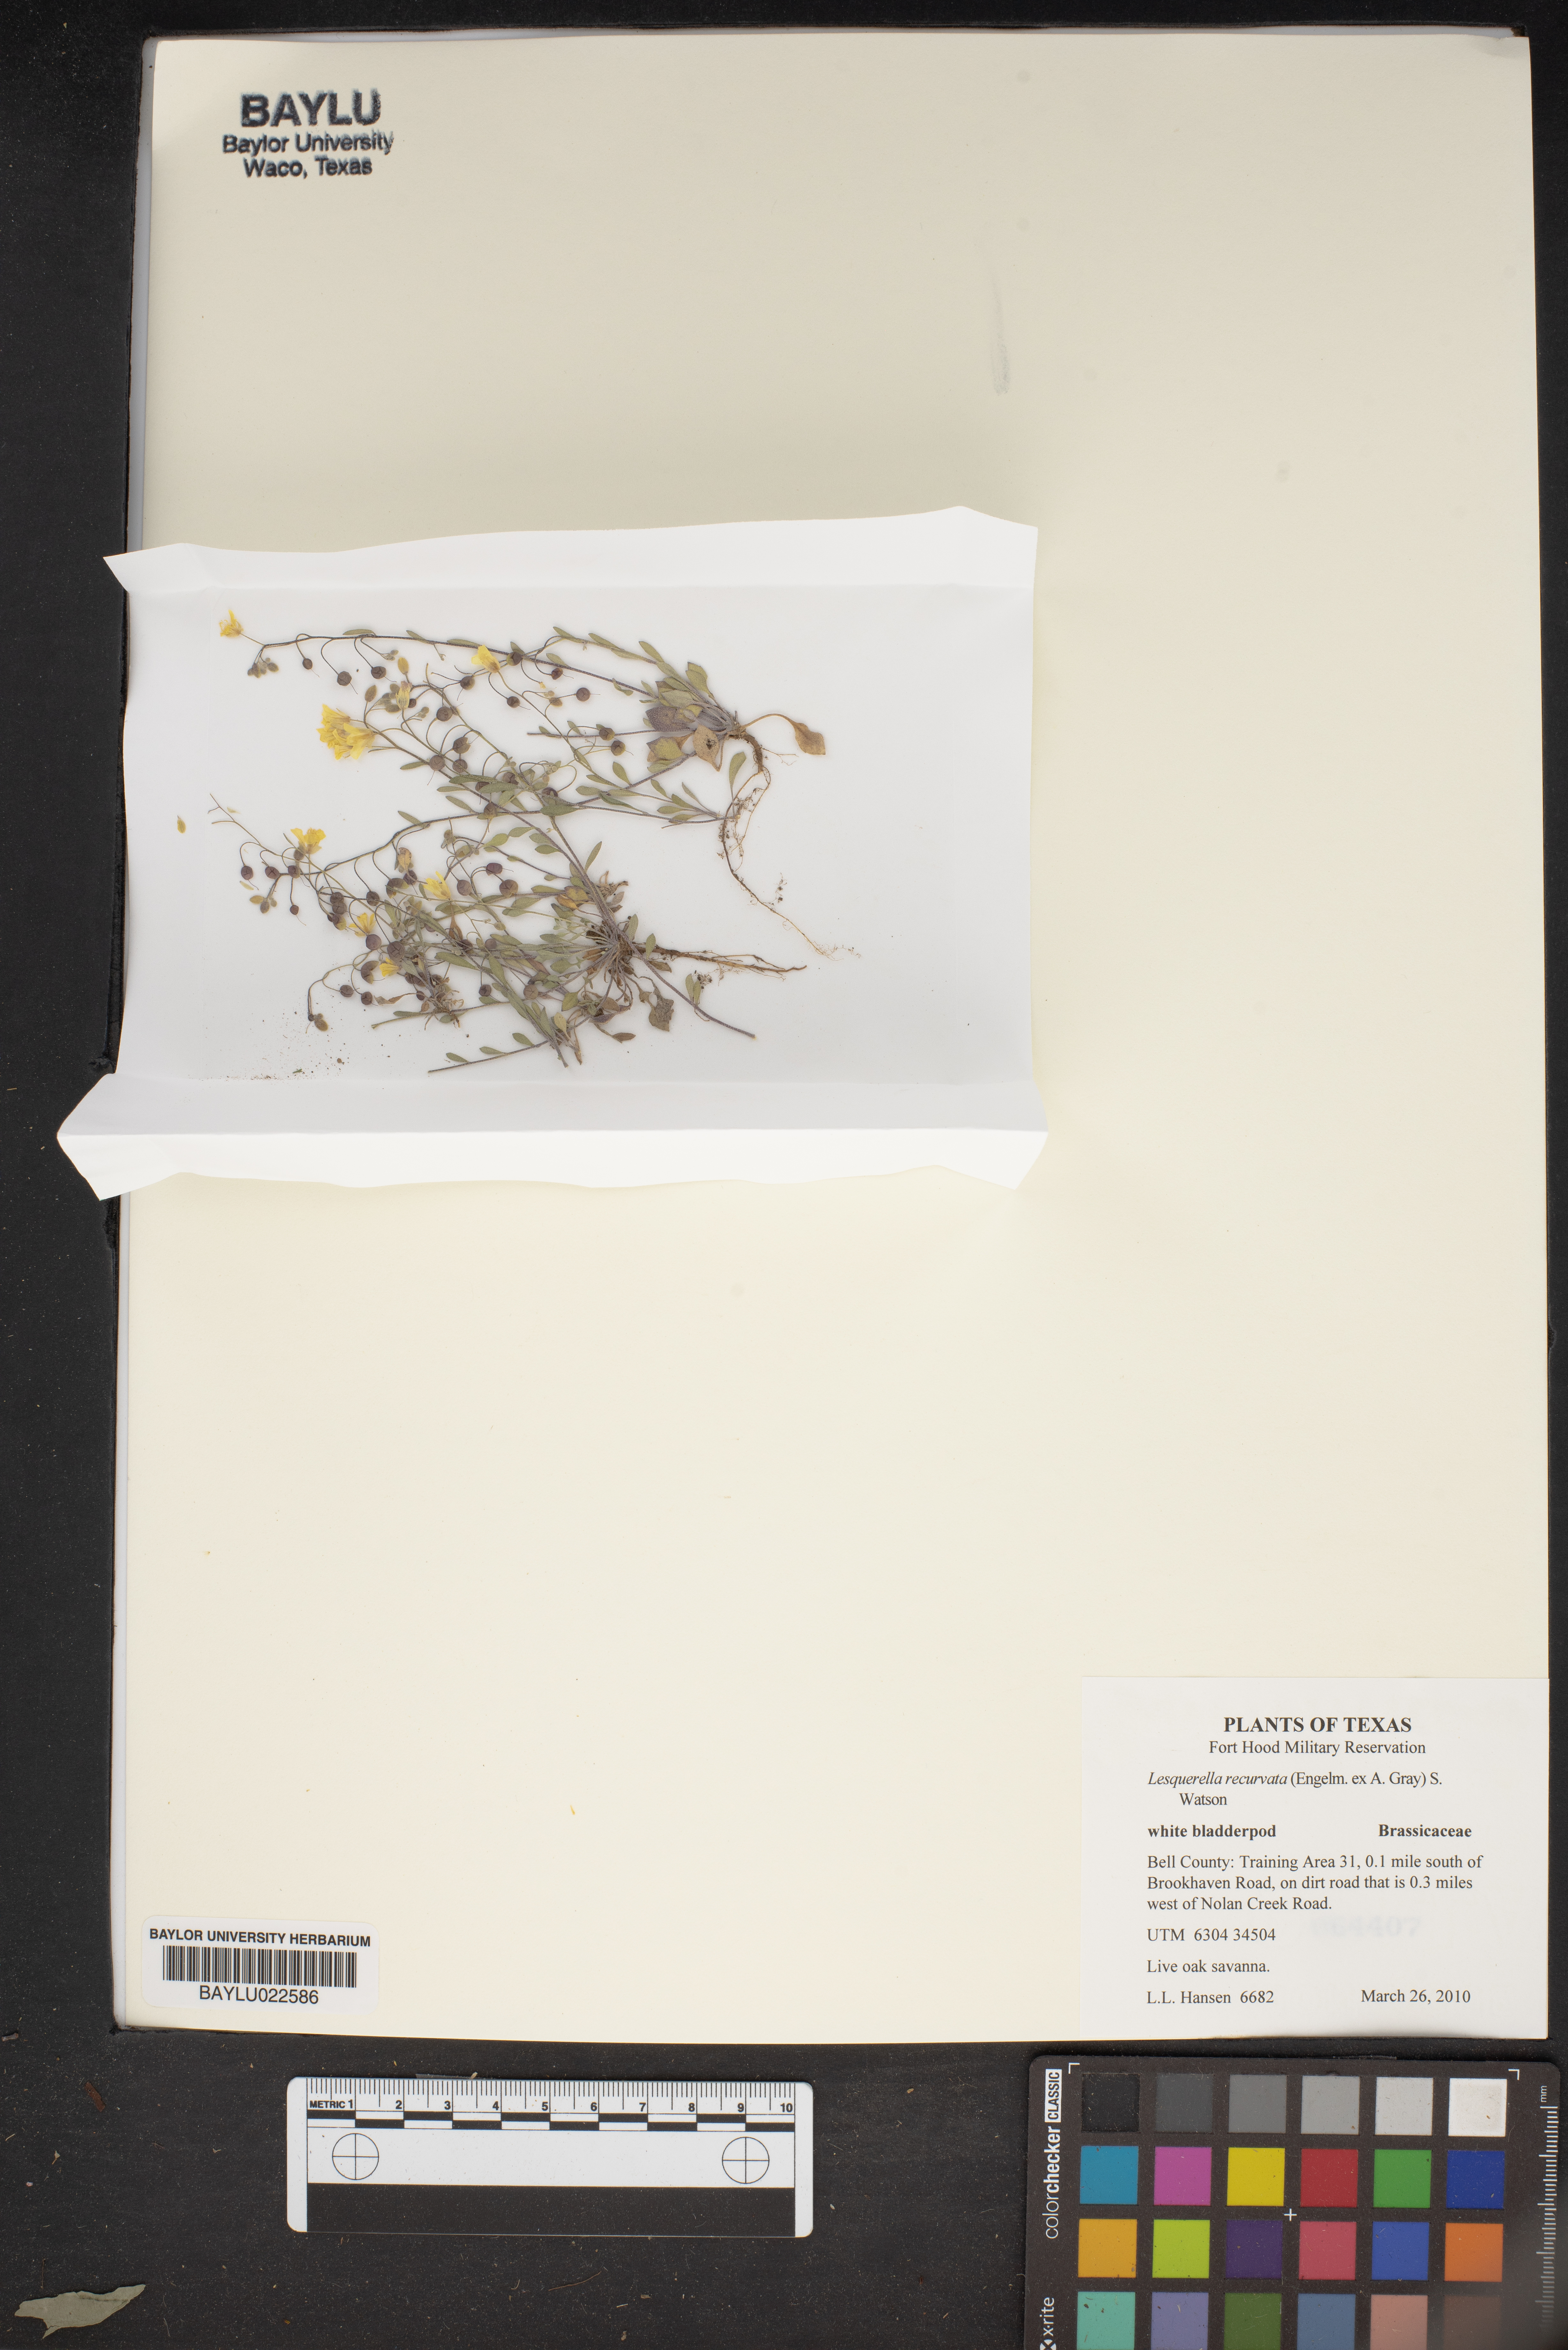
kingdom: Plantae
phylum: Tracheophyta
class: Magnoliopsida
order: Brassicales
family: Brassicaceae
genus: Physaria
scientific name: Physaria recurvata
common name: Gaslight bladderpod
